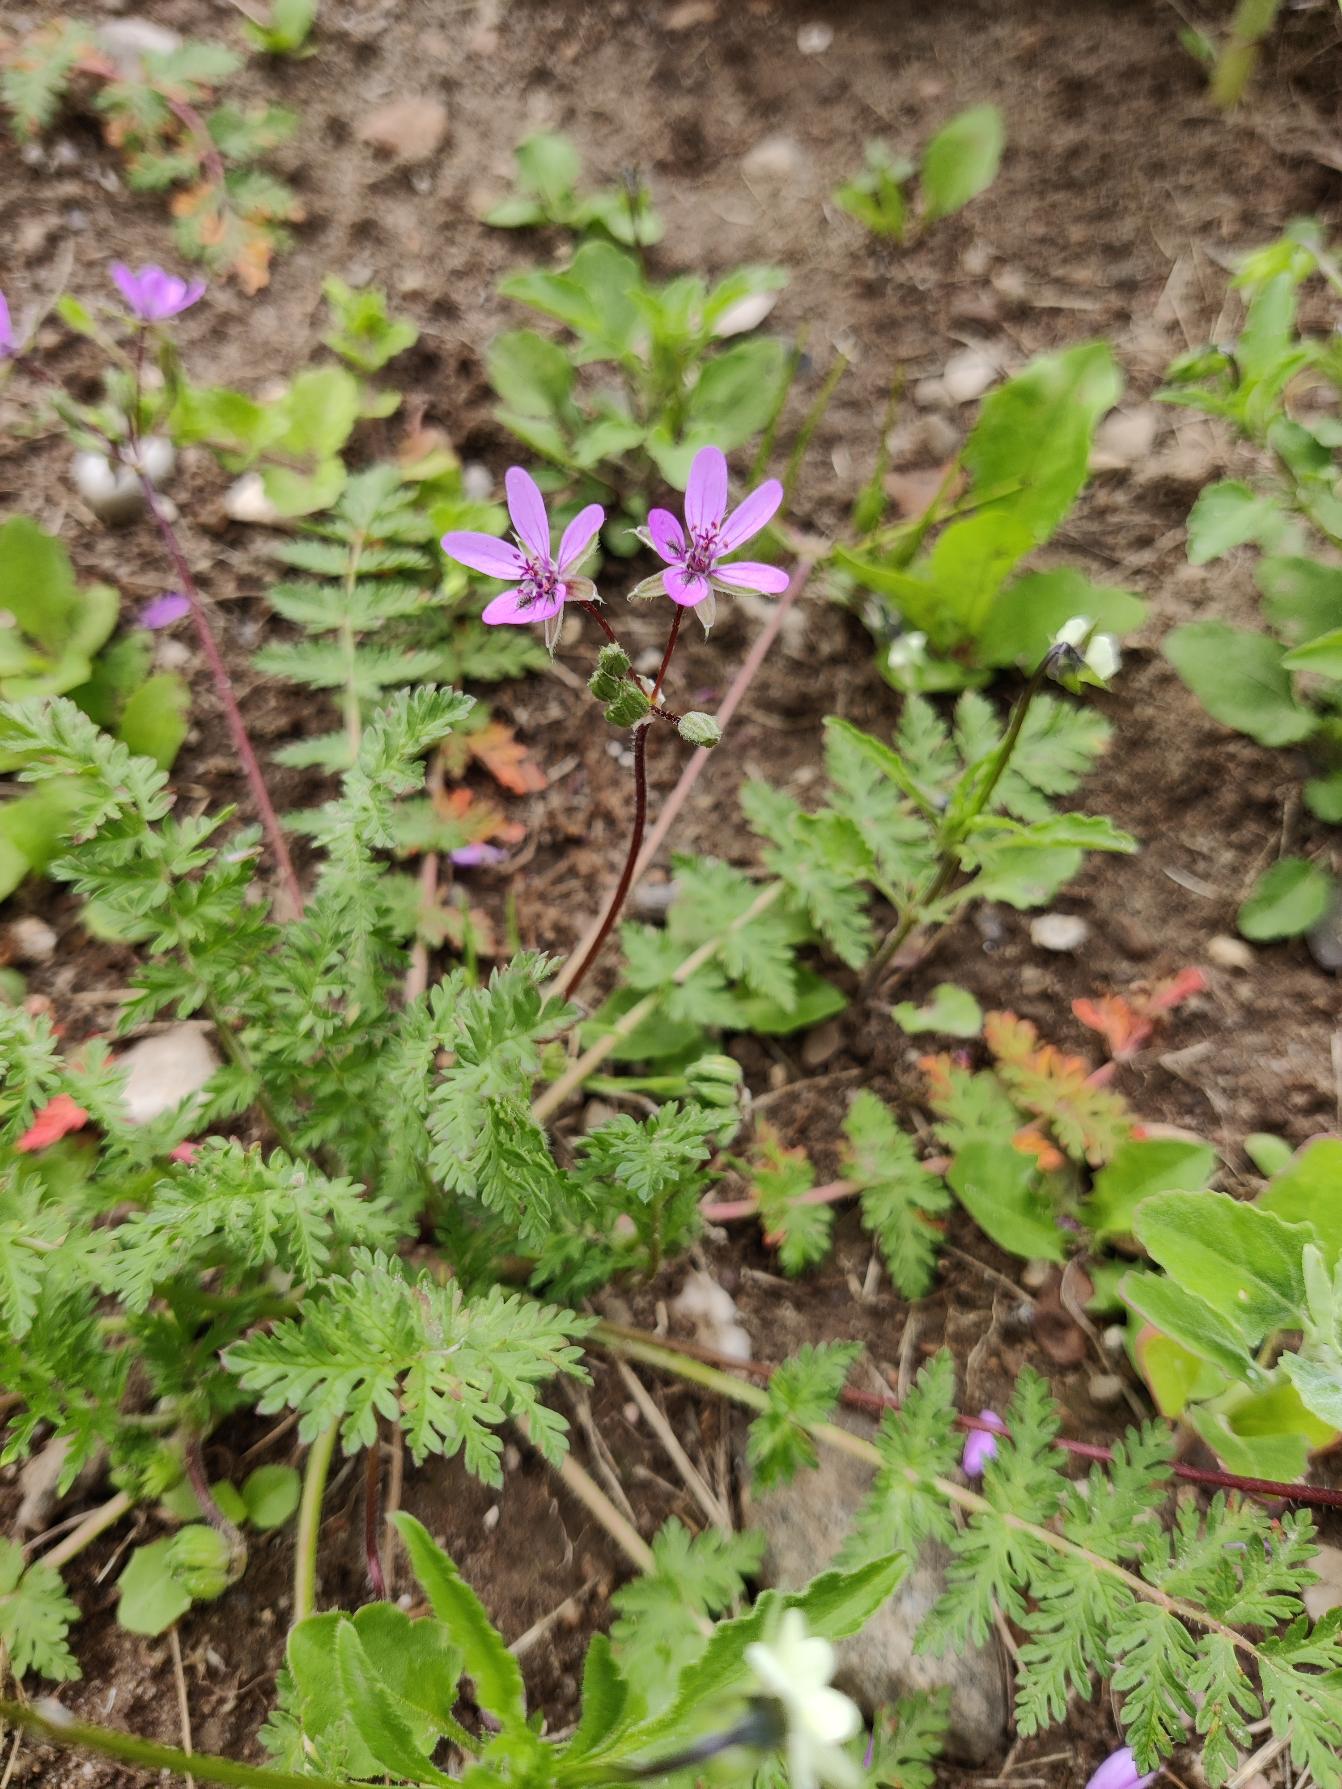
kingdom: Plantae
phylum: Tracheophyta
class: Magnoliopsida
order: Geraniales
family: Geraniaceae
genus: Erodium
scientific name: Erodium cicutarium
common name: Hejrenæb
